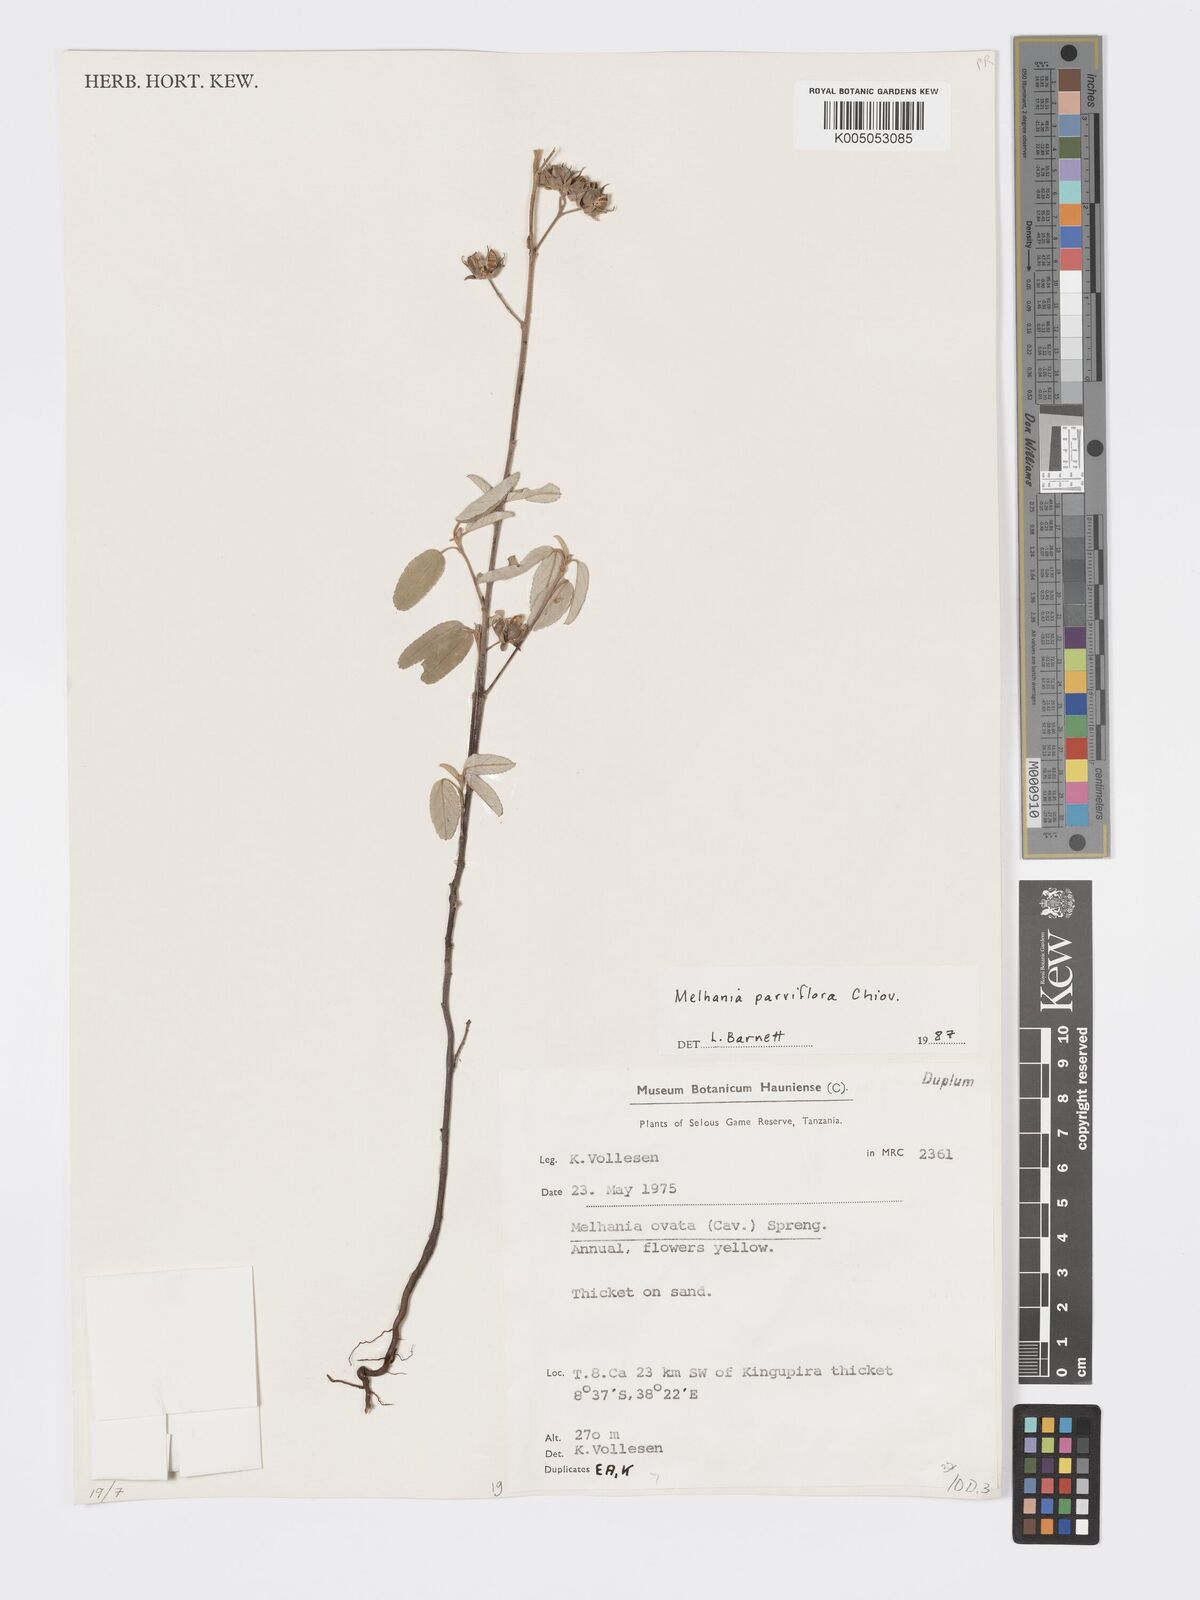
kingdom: Plantae
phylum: Tracheophyta
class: Magnoliopsida
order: Malvales
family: Malvaceae
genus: Melhania
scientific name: Melhania parviflora
